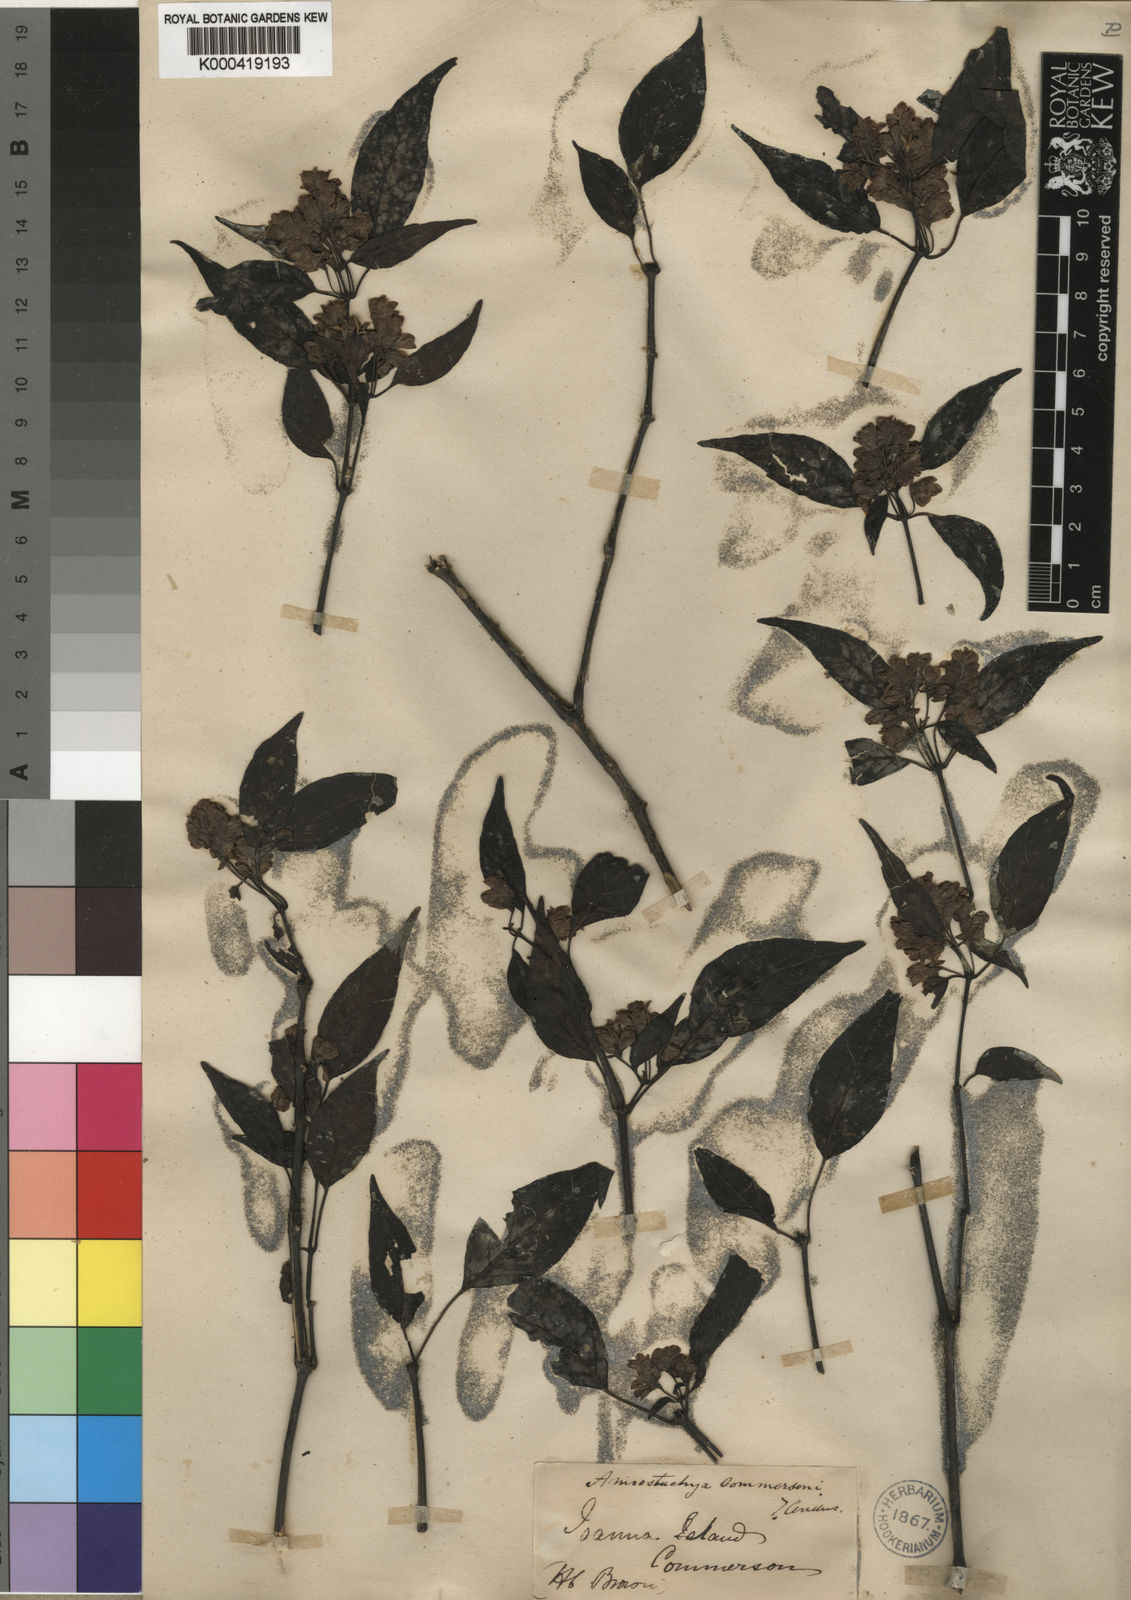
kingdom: Plantae
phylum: Tracheophyta
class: Magnoliopsida
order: Lamiales
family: Acanthaceae
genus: Justicia
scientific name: Justicia
